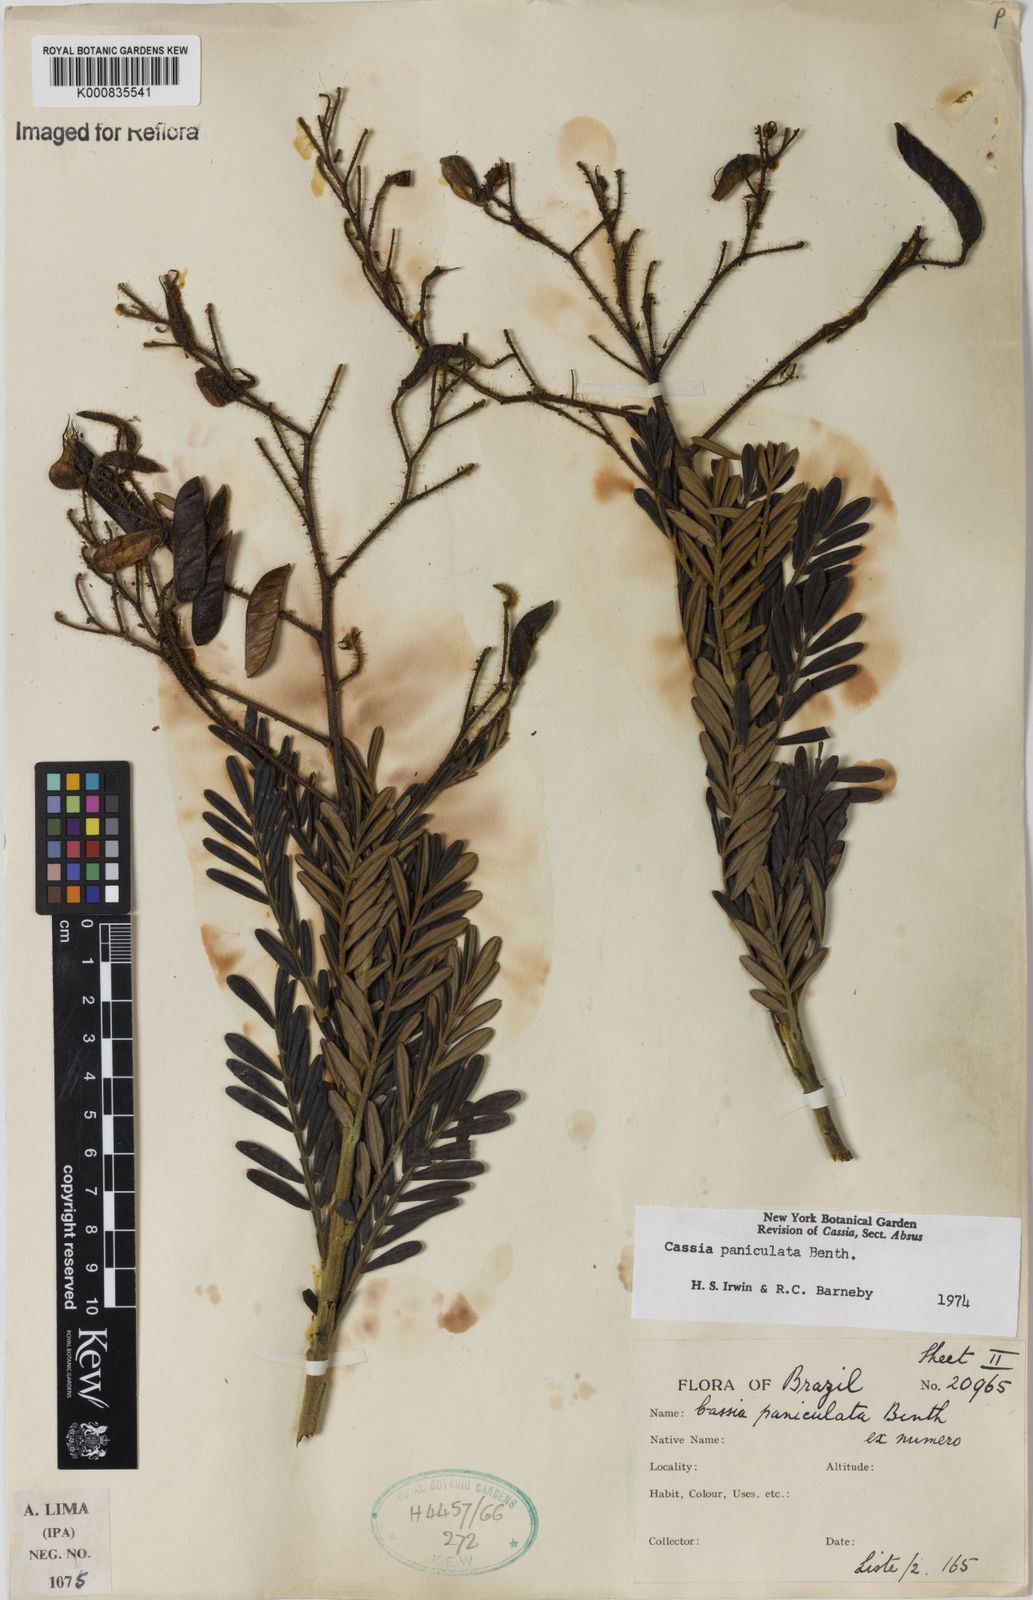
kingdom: Plantae
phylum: Tracheophyta
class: Magnoliopsida
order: Fabales
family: Fabaceae
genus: Chamaecrista
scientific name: Chamaecrista paniculata
